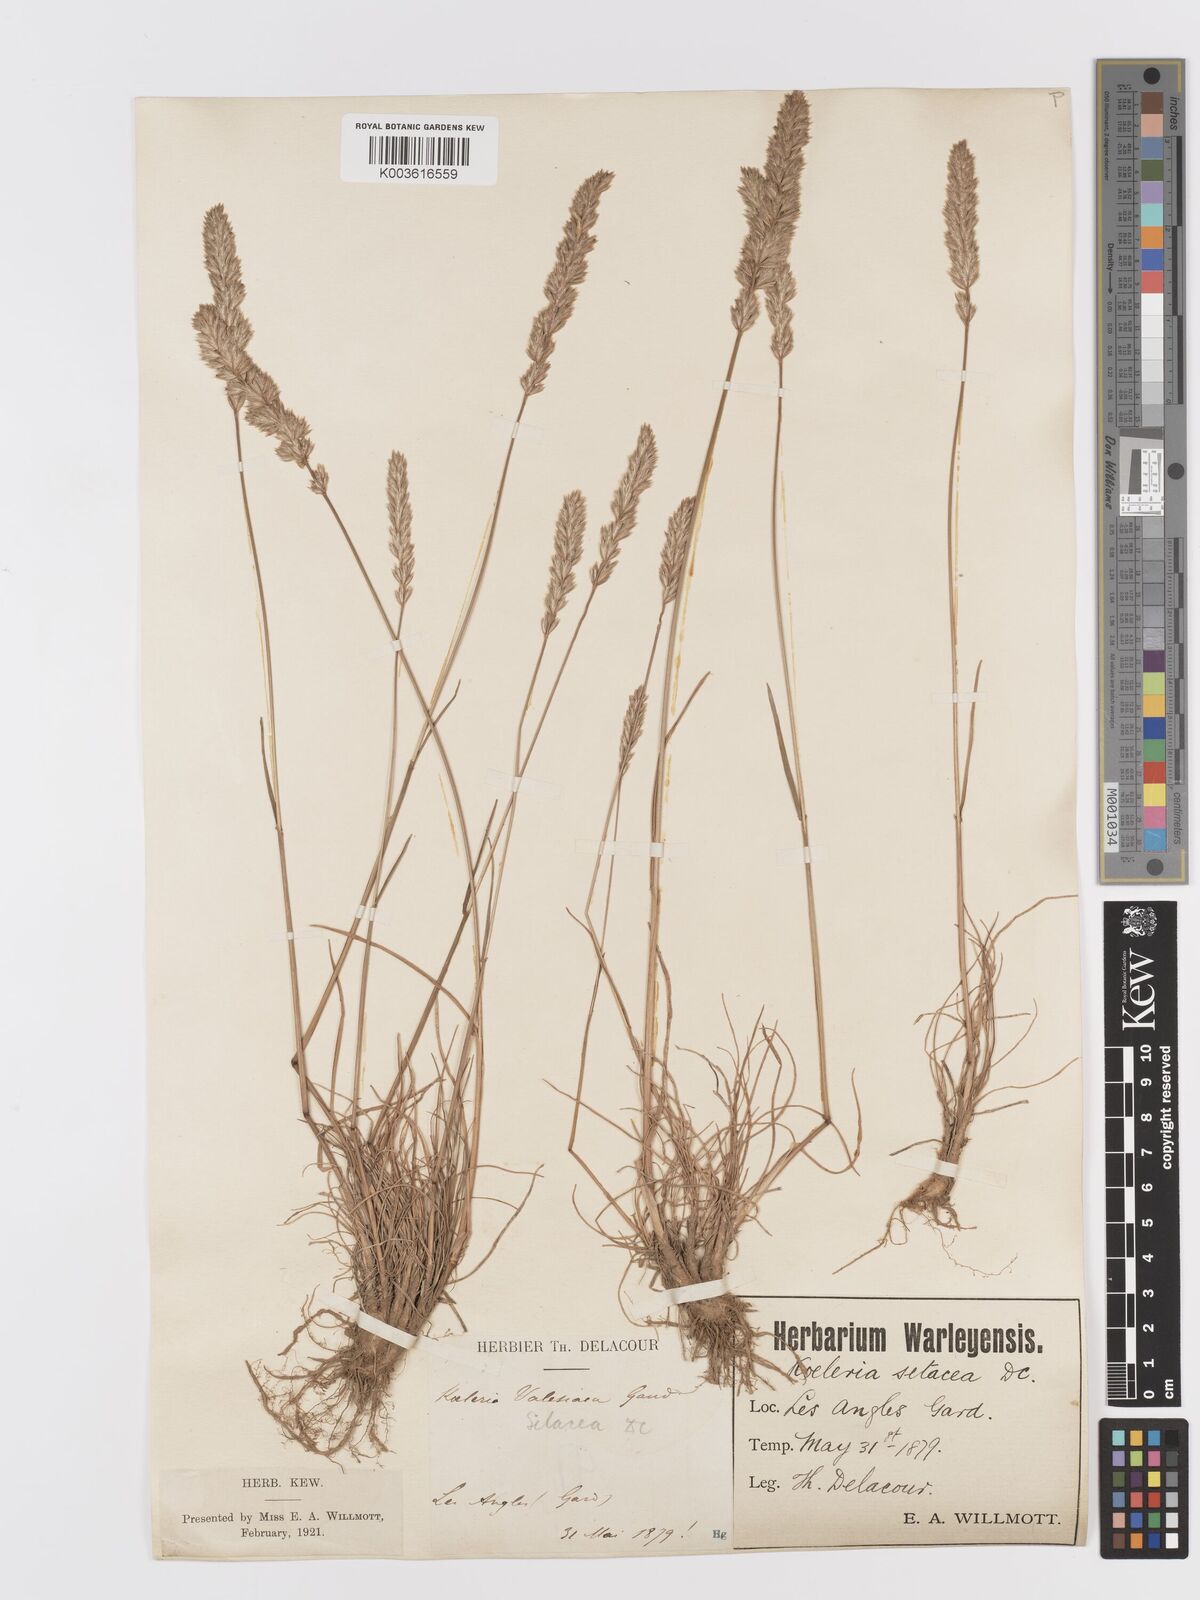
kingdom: Plantae
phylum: Tracheophyta
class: Liliopsida
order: Poales
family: Poaceae
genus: Koeleria
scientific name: Koeleria vallesiana
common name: Somerset hair-grass
